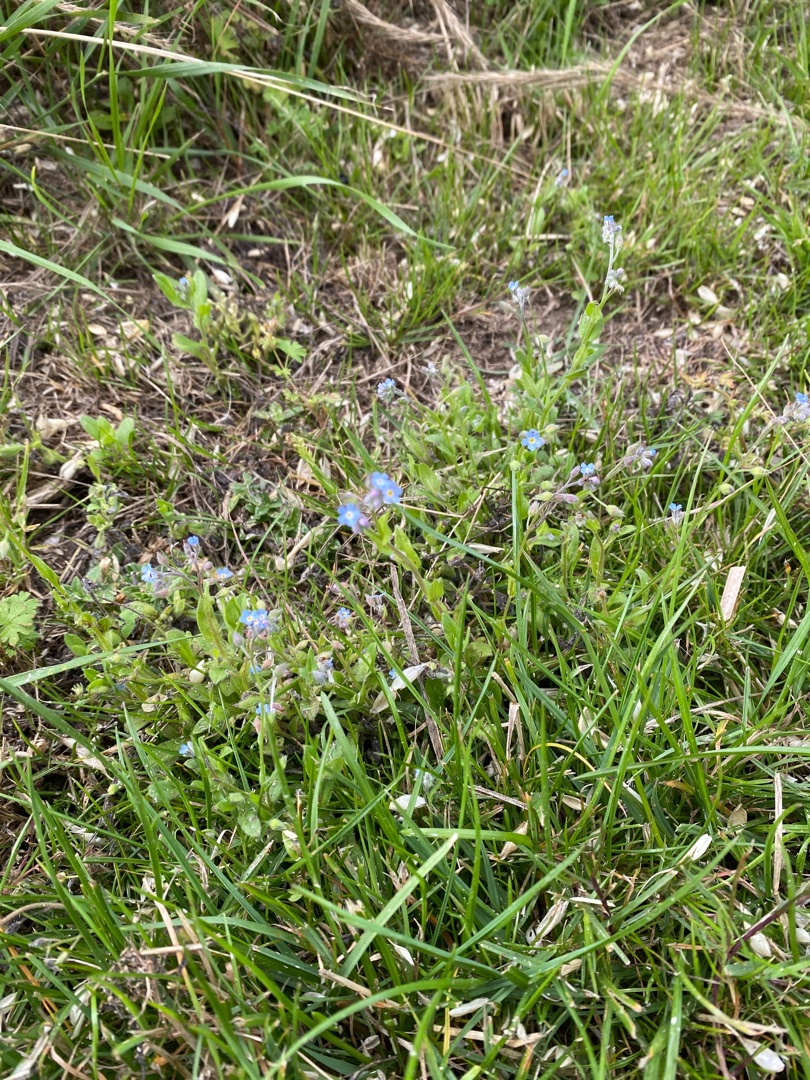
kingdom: Plantae
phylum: Tracheophyta
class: Magnoliopsida
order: Boraginales
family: Boraginaceae
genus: Myosotis
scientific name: Myosotis arvensis
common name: Mark-forglemmigej
